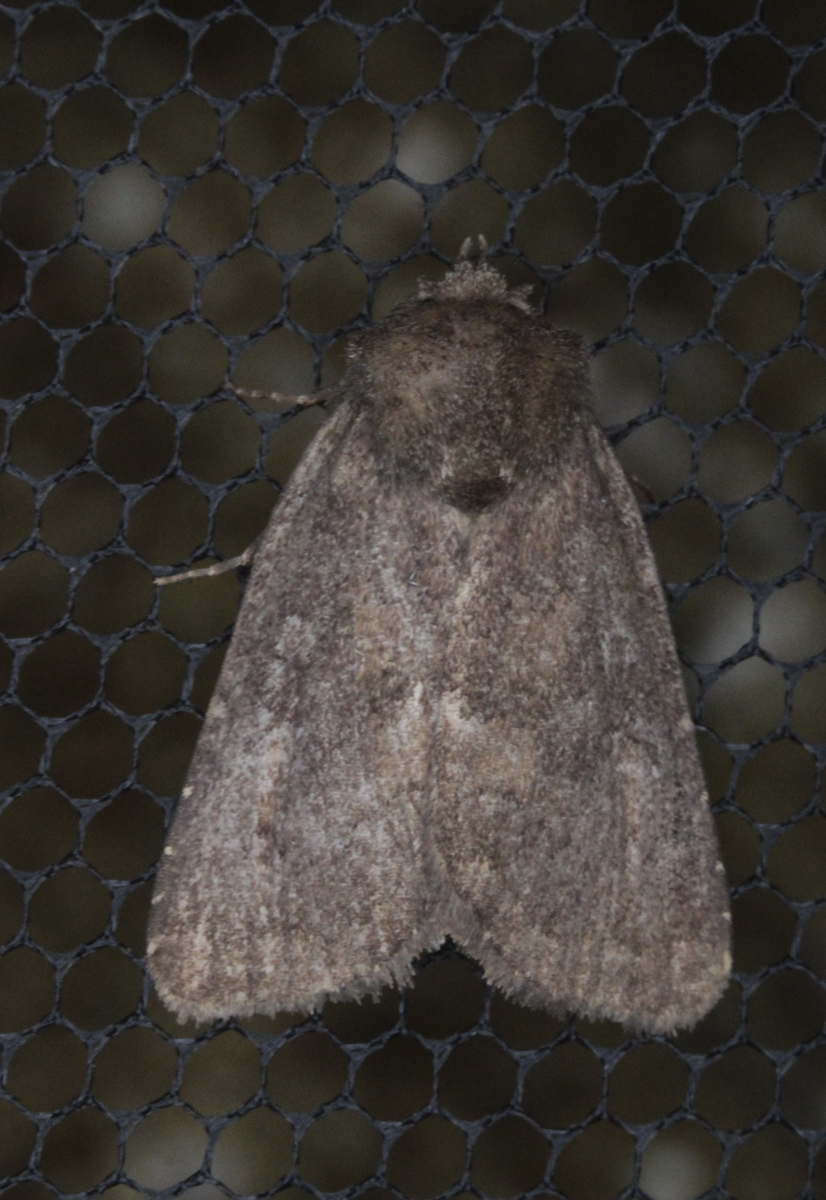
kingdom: Animalia
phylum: Arthropoda
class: Insecta
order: Lepidoptera
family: Noctuidae
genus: Charanyca
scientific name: Charanyca ferruginea
